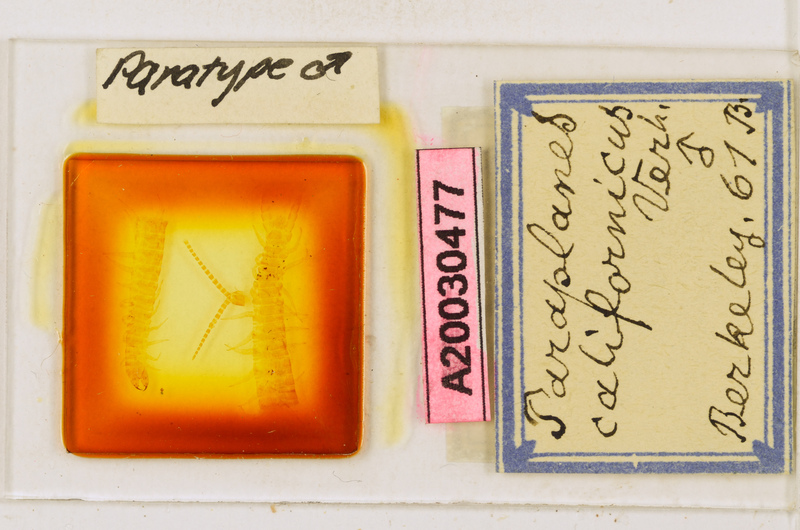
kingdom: Animalia
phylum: Arthropoda
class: Chilopoda
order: Geophilomorpha
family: Linotaeniidae
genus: Diplochora
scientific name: Diplochora fusata
